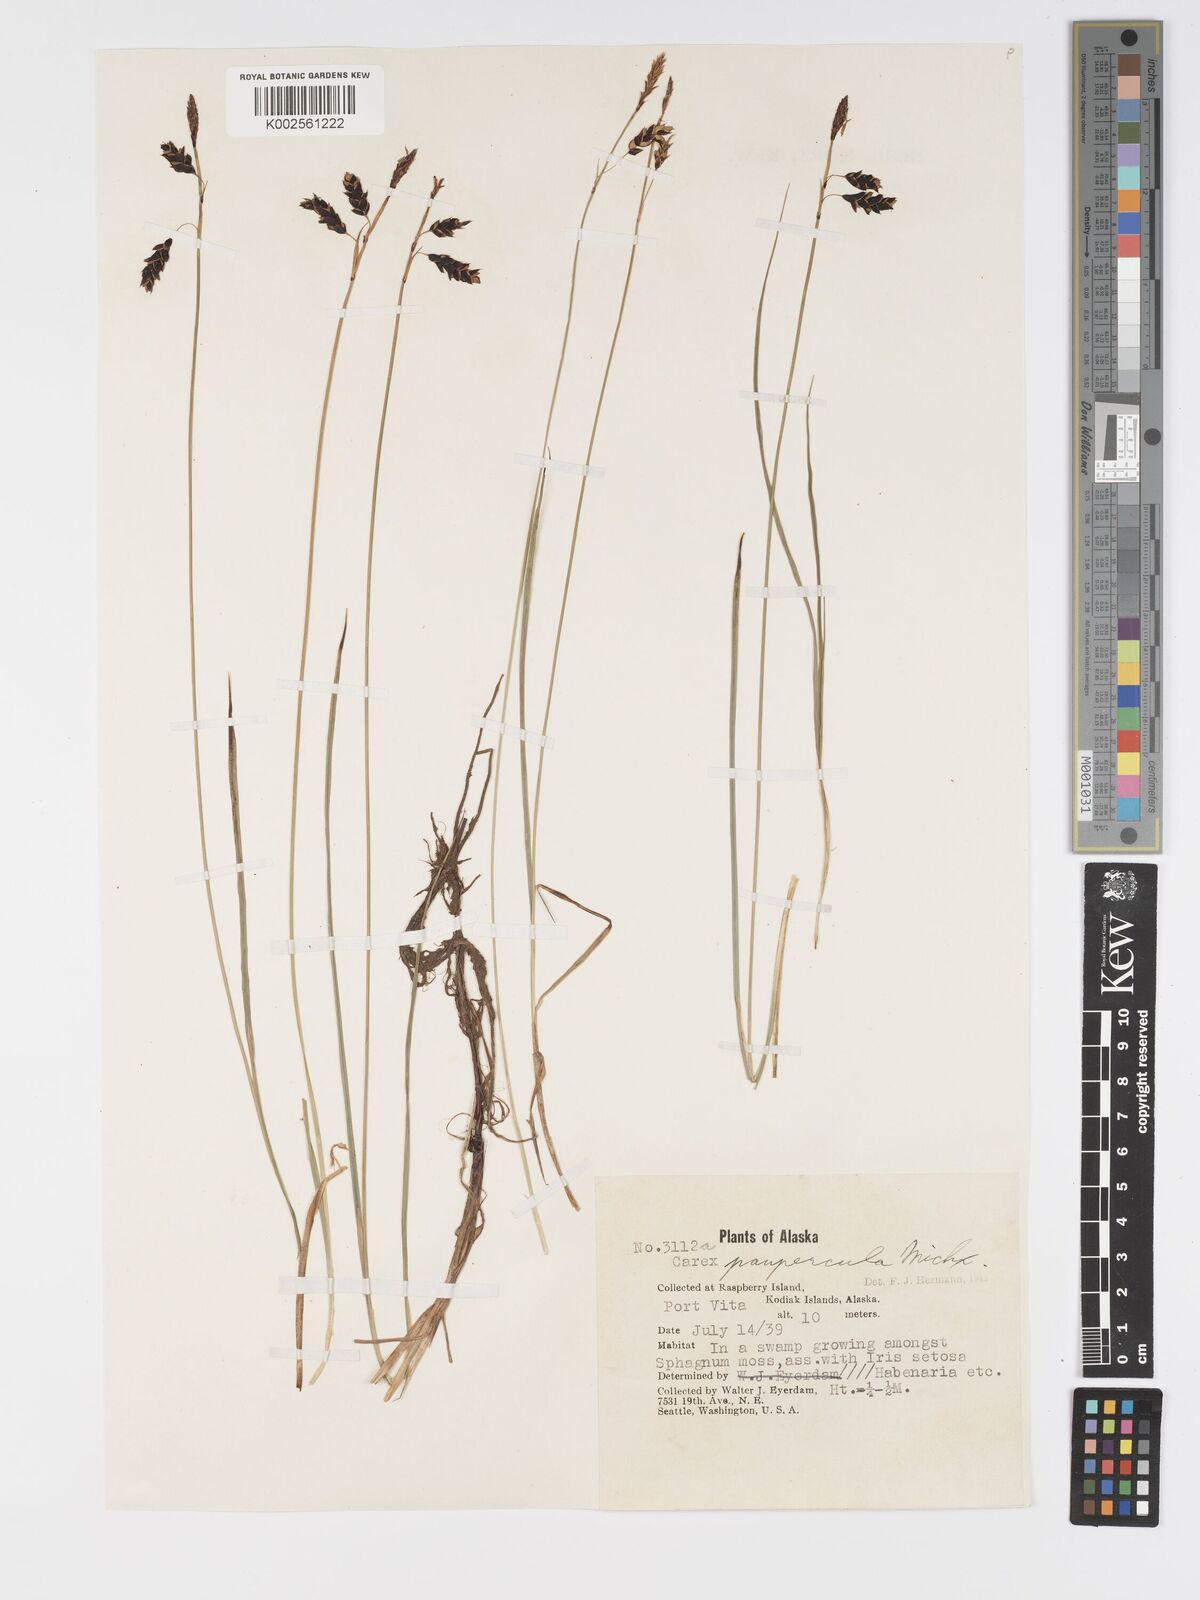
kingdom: Plantae
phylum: Tracheophyta
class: Liliopsida
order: Poales
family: Cyperaceae
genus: Carex
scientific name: Carex limosa
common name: Bog sedge
